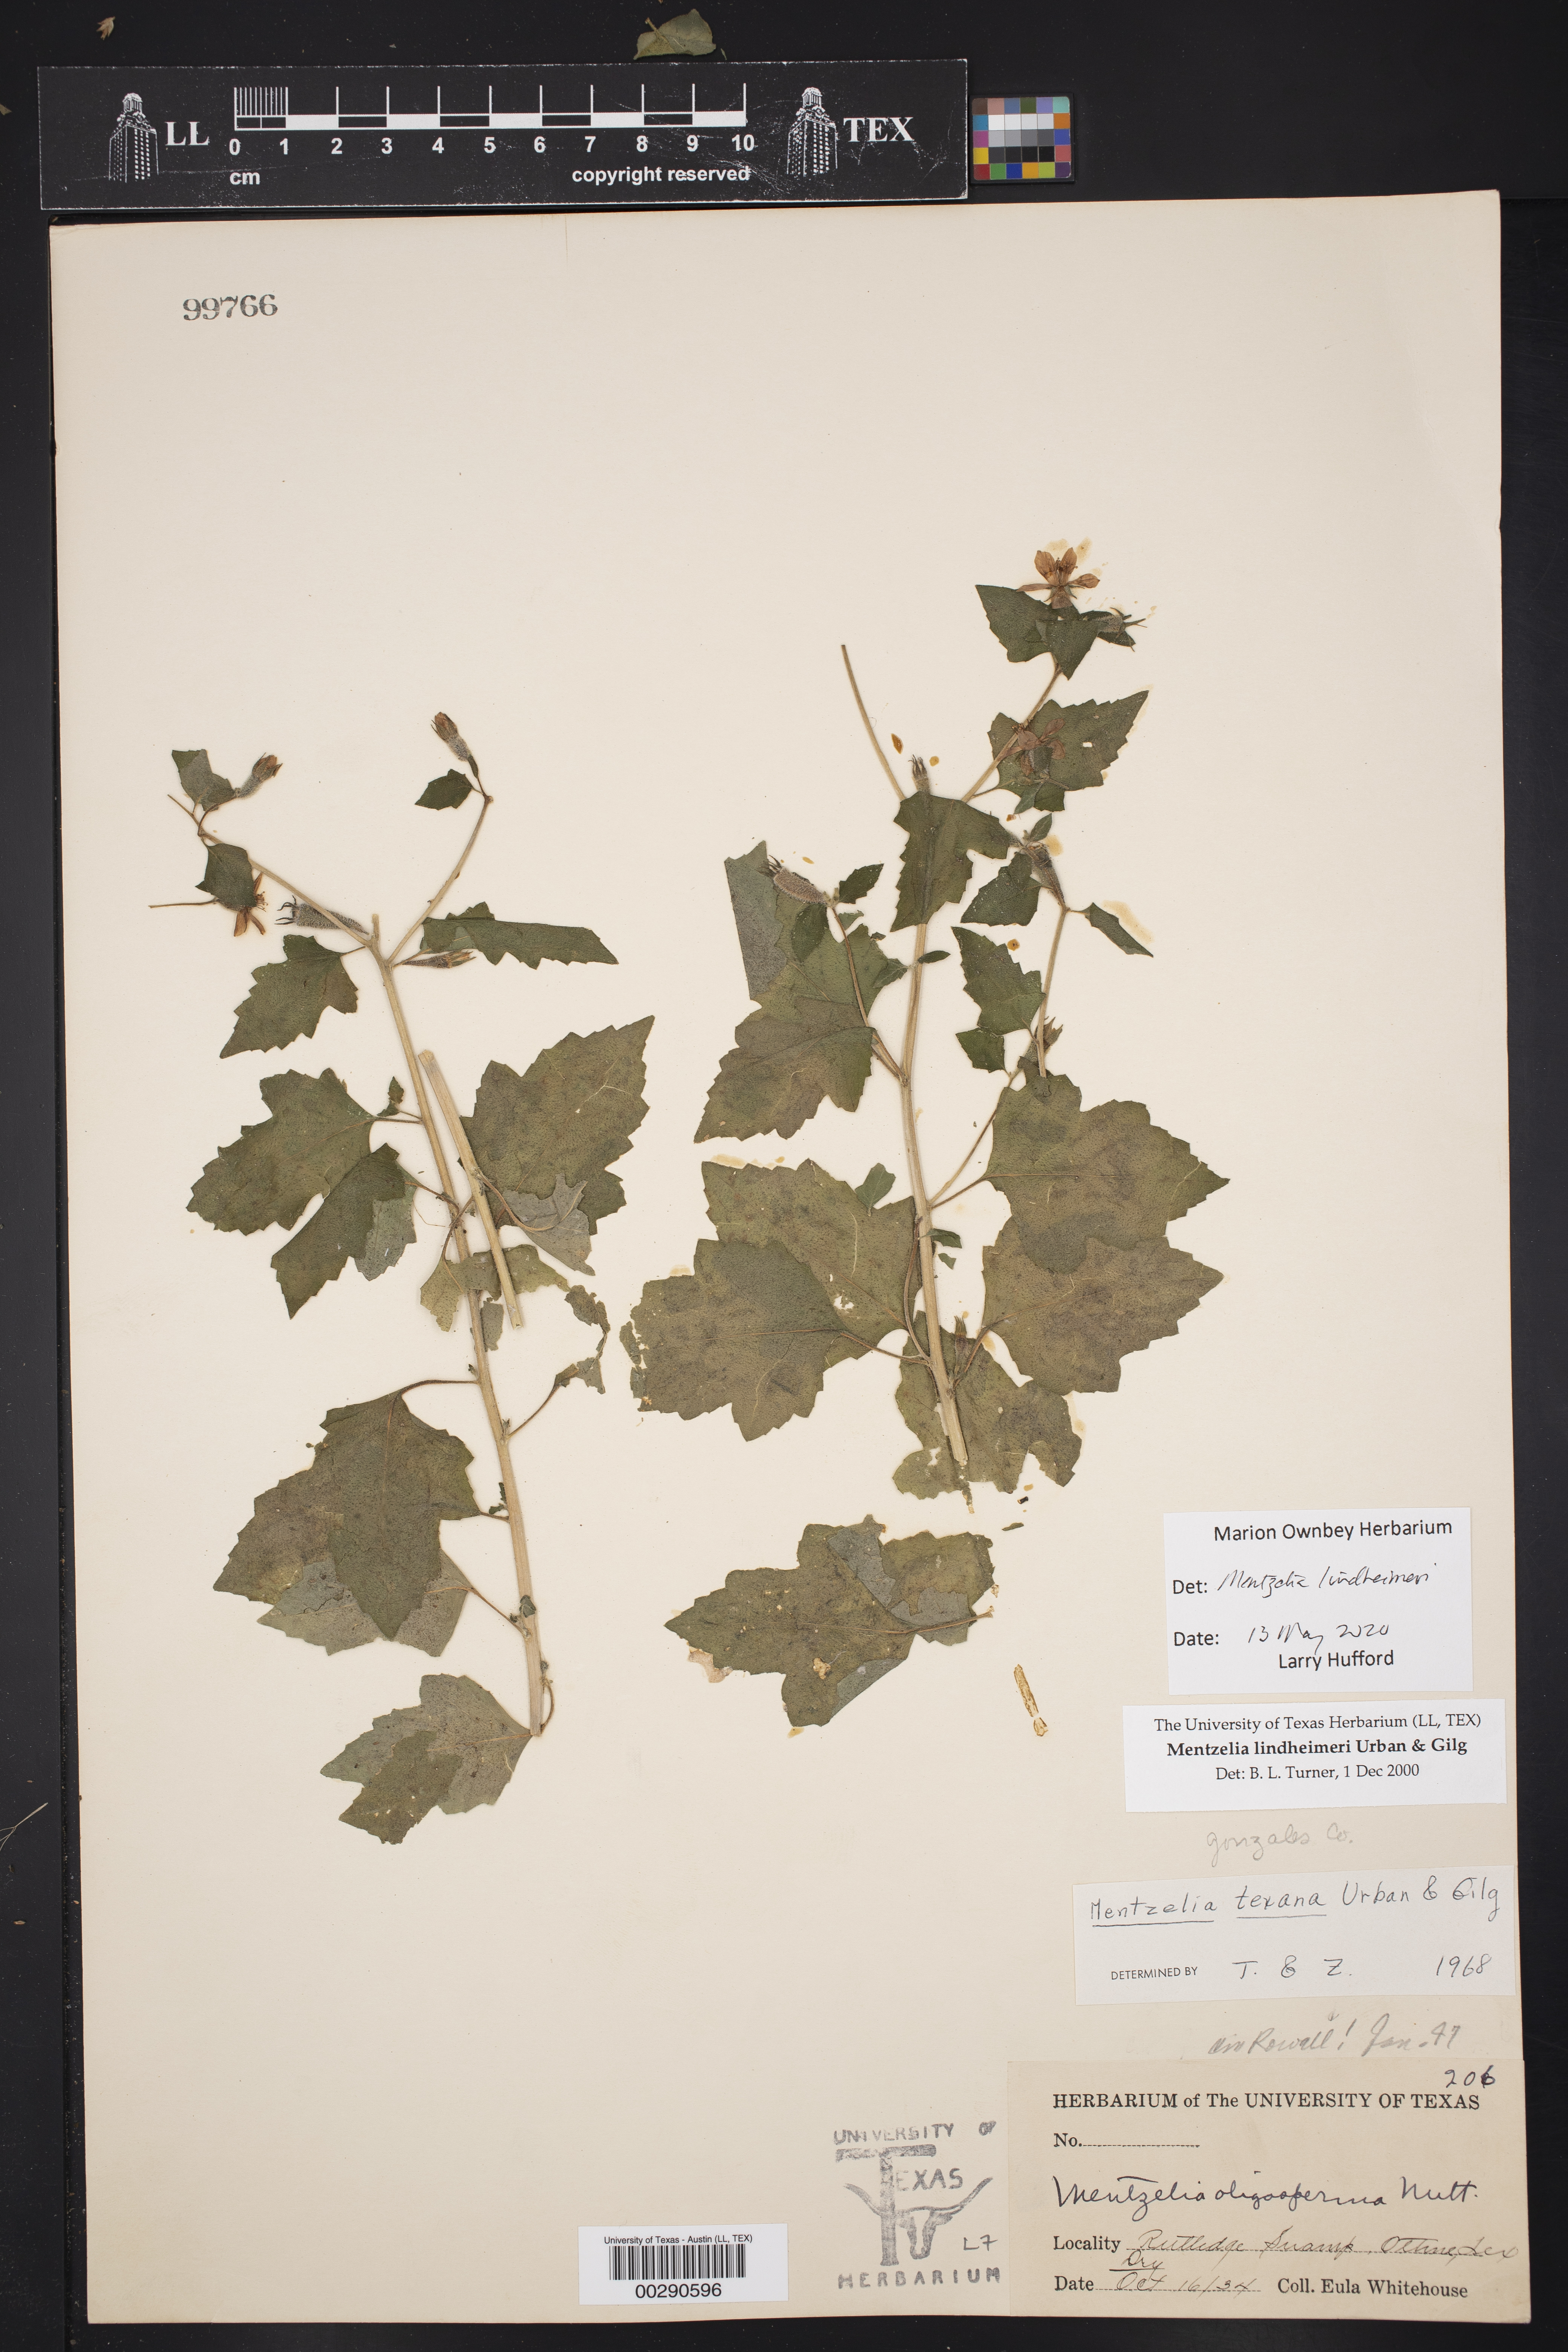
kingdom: Plantae
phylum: Tracheophyta
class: Magnoliopsida
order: Cornales
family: Loasaceae
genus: Mentzelia
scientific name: Mentzelia lindheimeri
